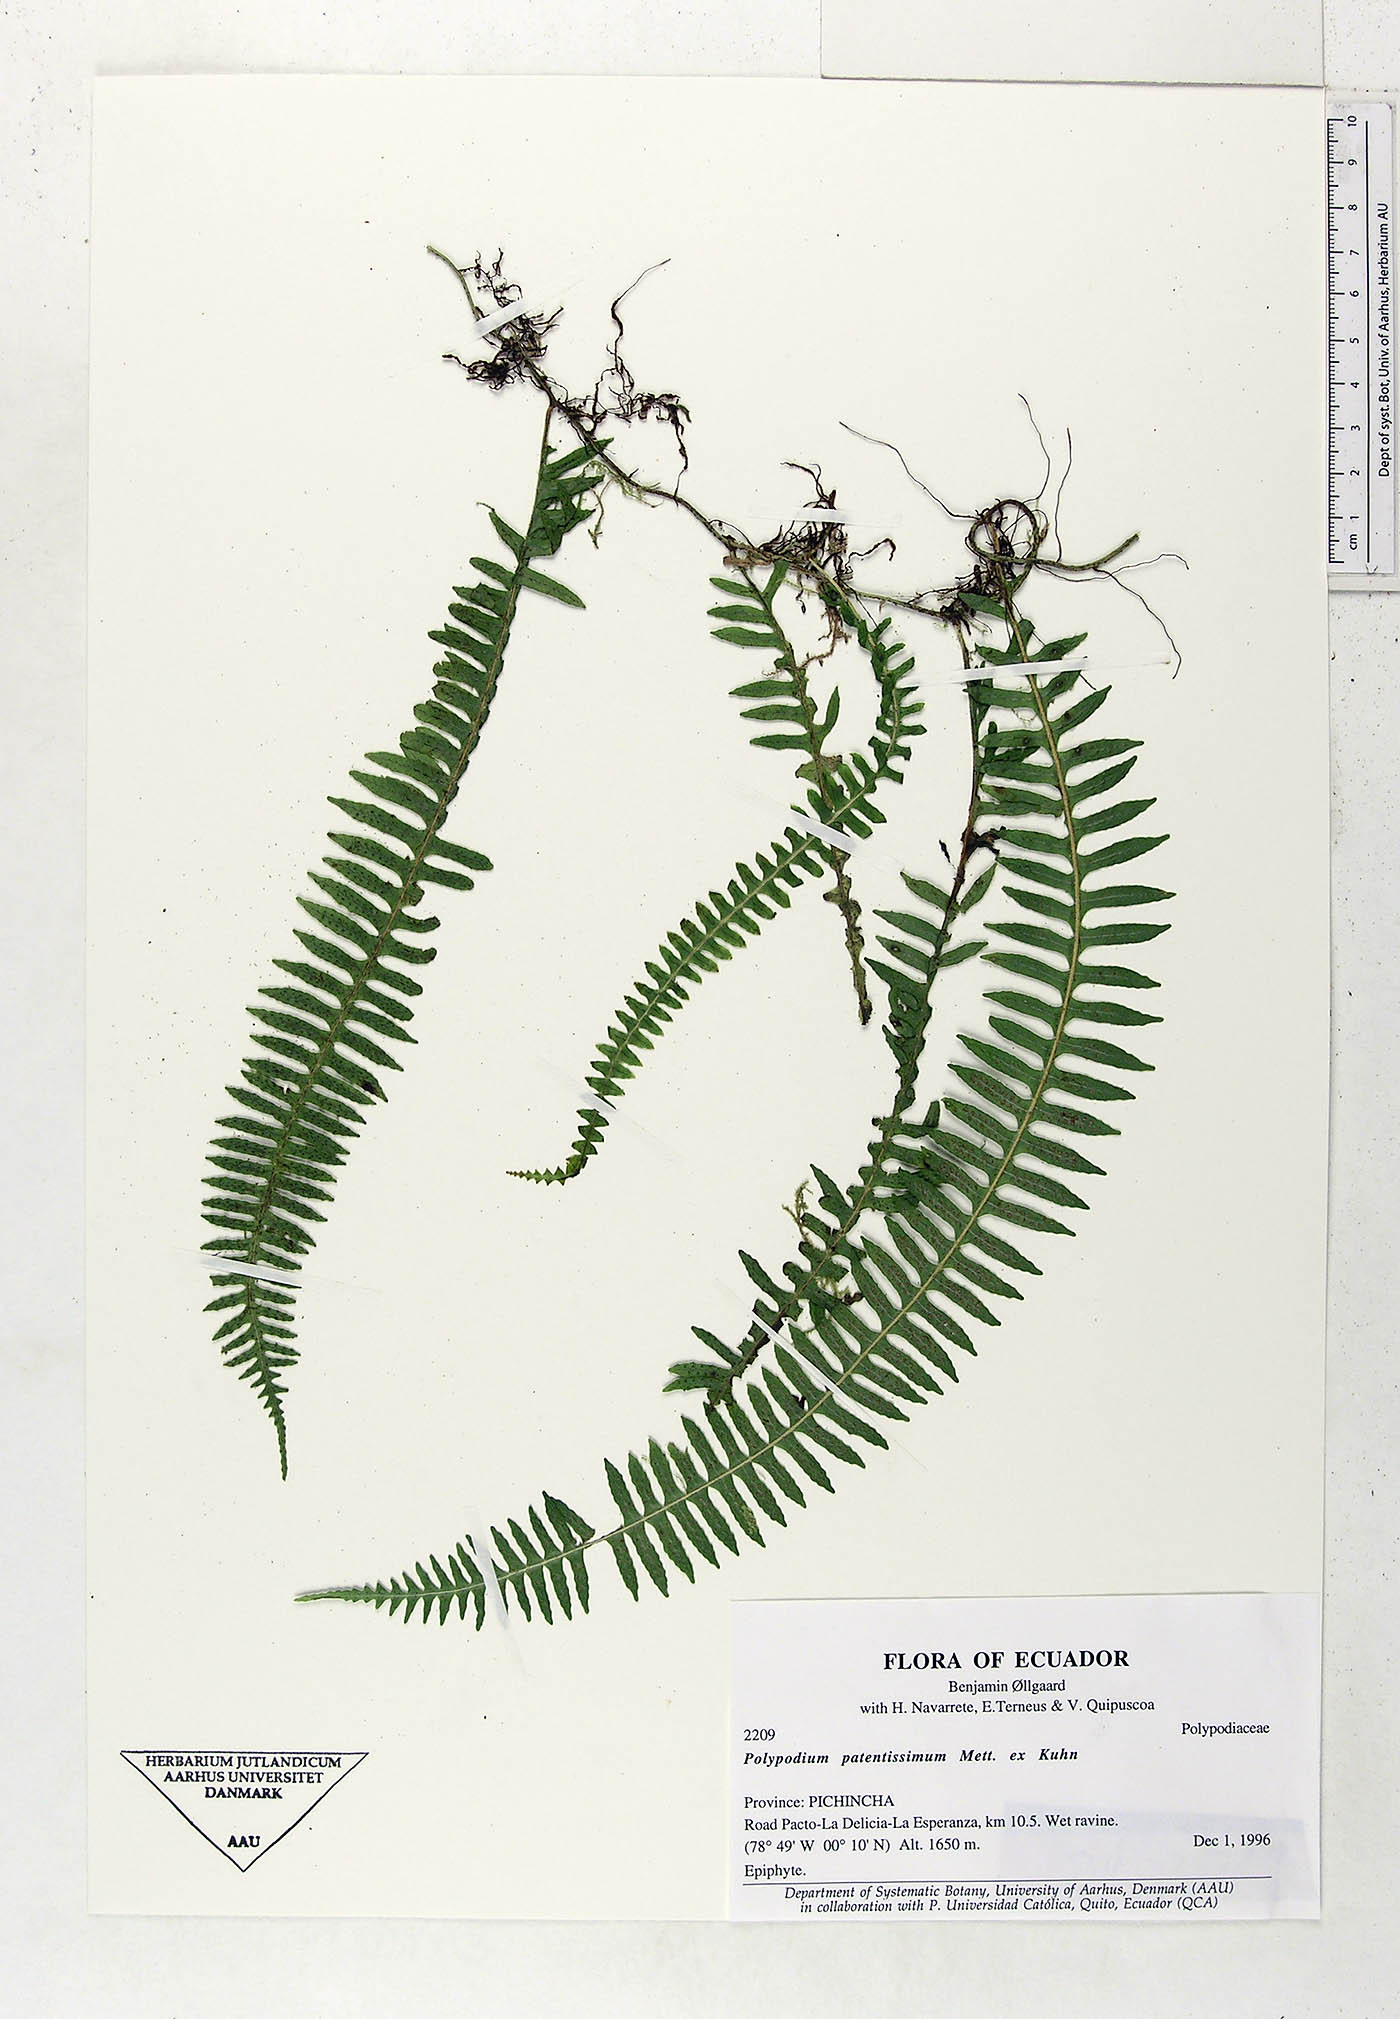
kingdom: Plantae
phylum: Tracheophyta
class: Polypodiopsida
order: Polypodiales
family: Polypodiaceae
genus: Serpocaulon
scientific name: Serpocaulon patentissimum
